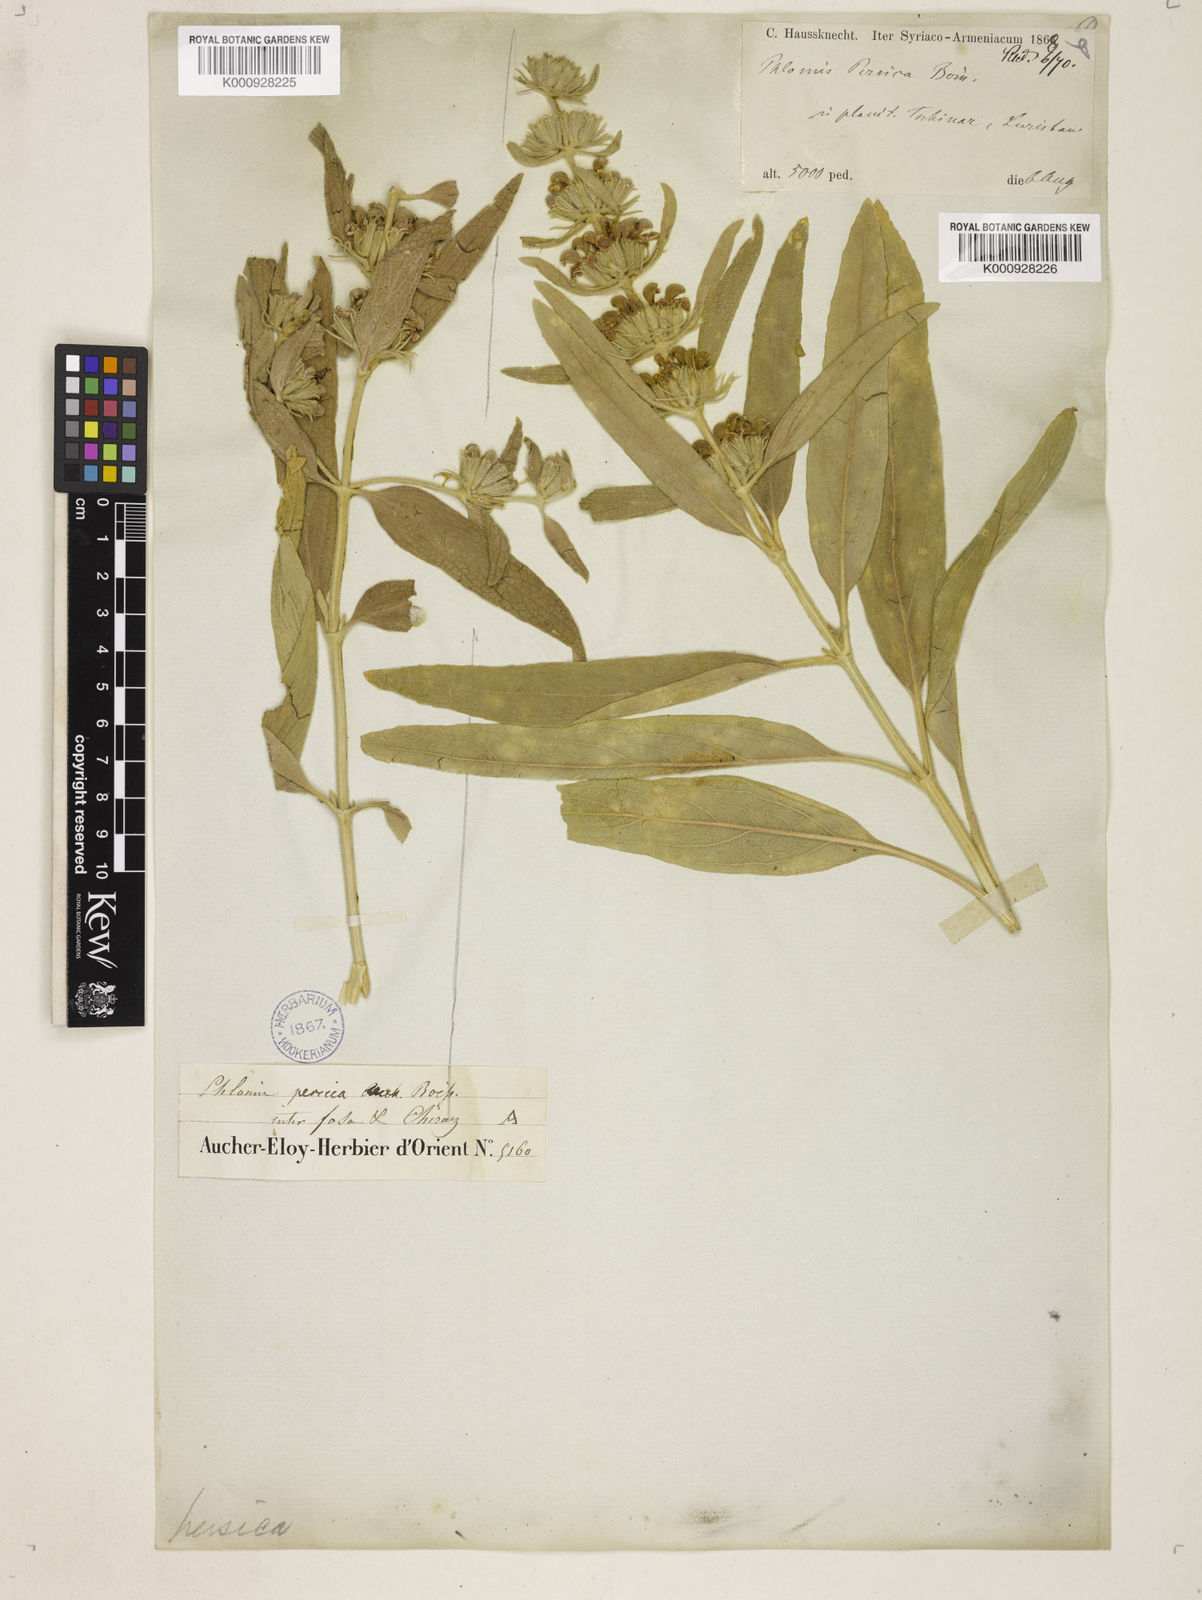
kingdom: Plantae
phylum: Tracheophyta
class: Magnoliopsida
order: Lamiales
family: Lamiaceae
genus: Phlomis
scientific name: Phlomis persica
